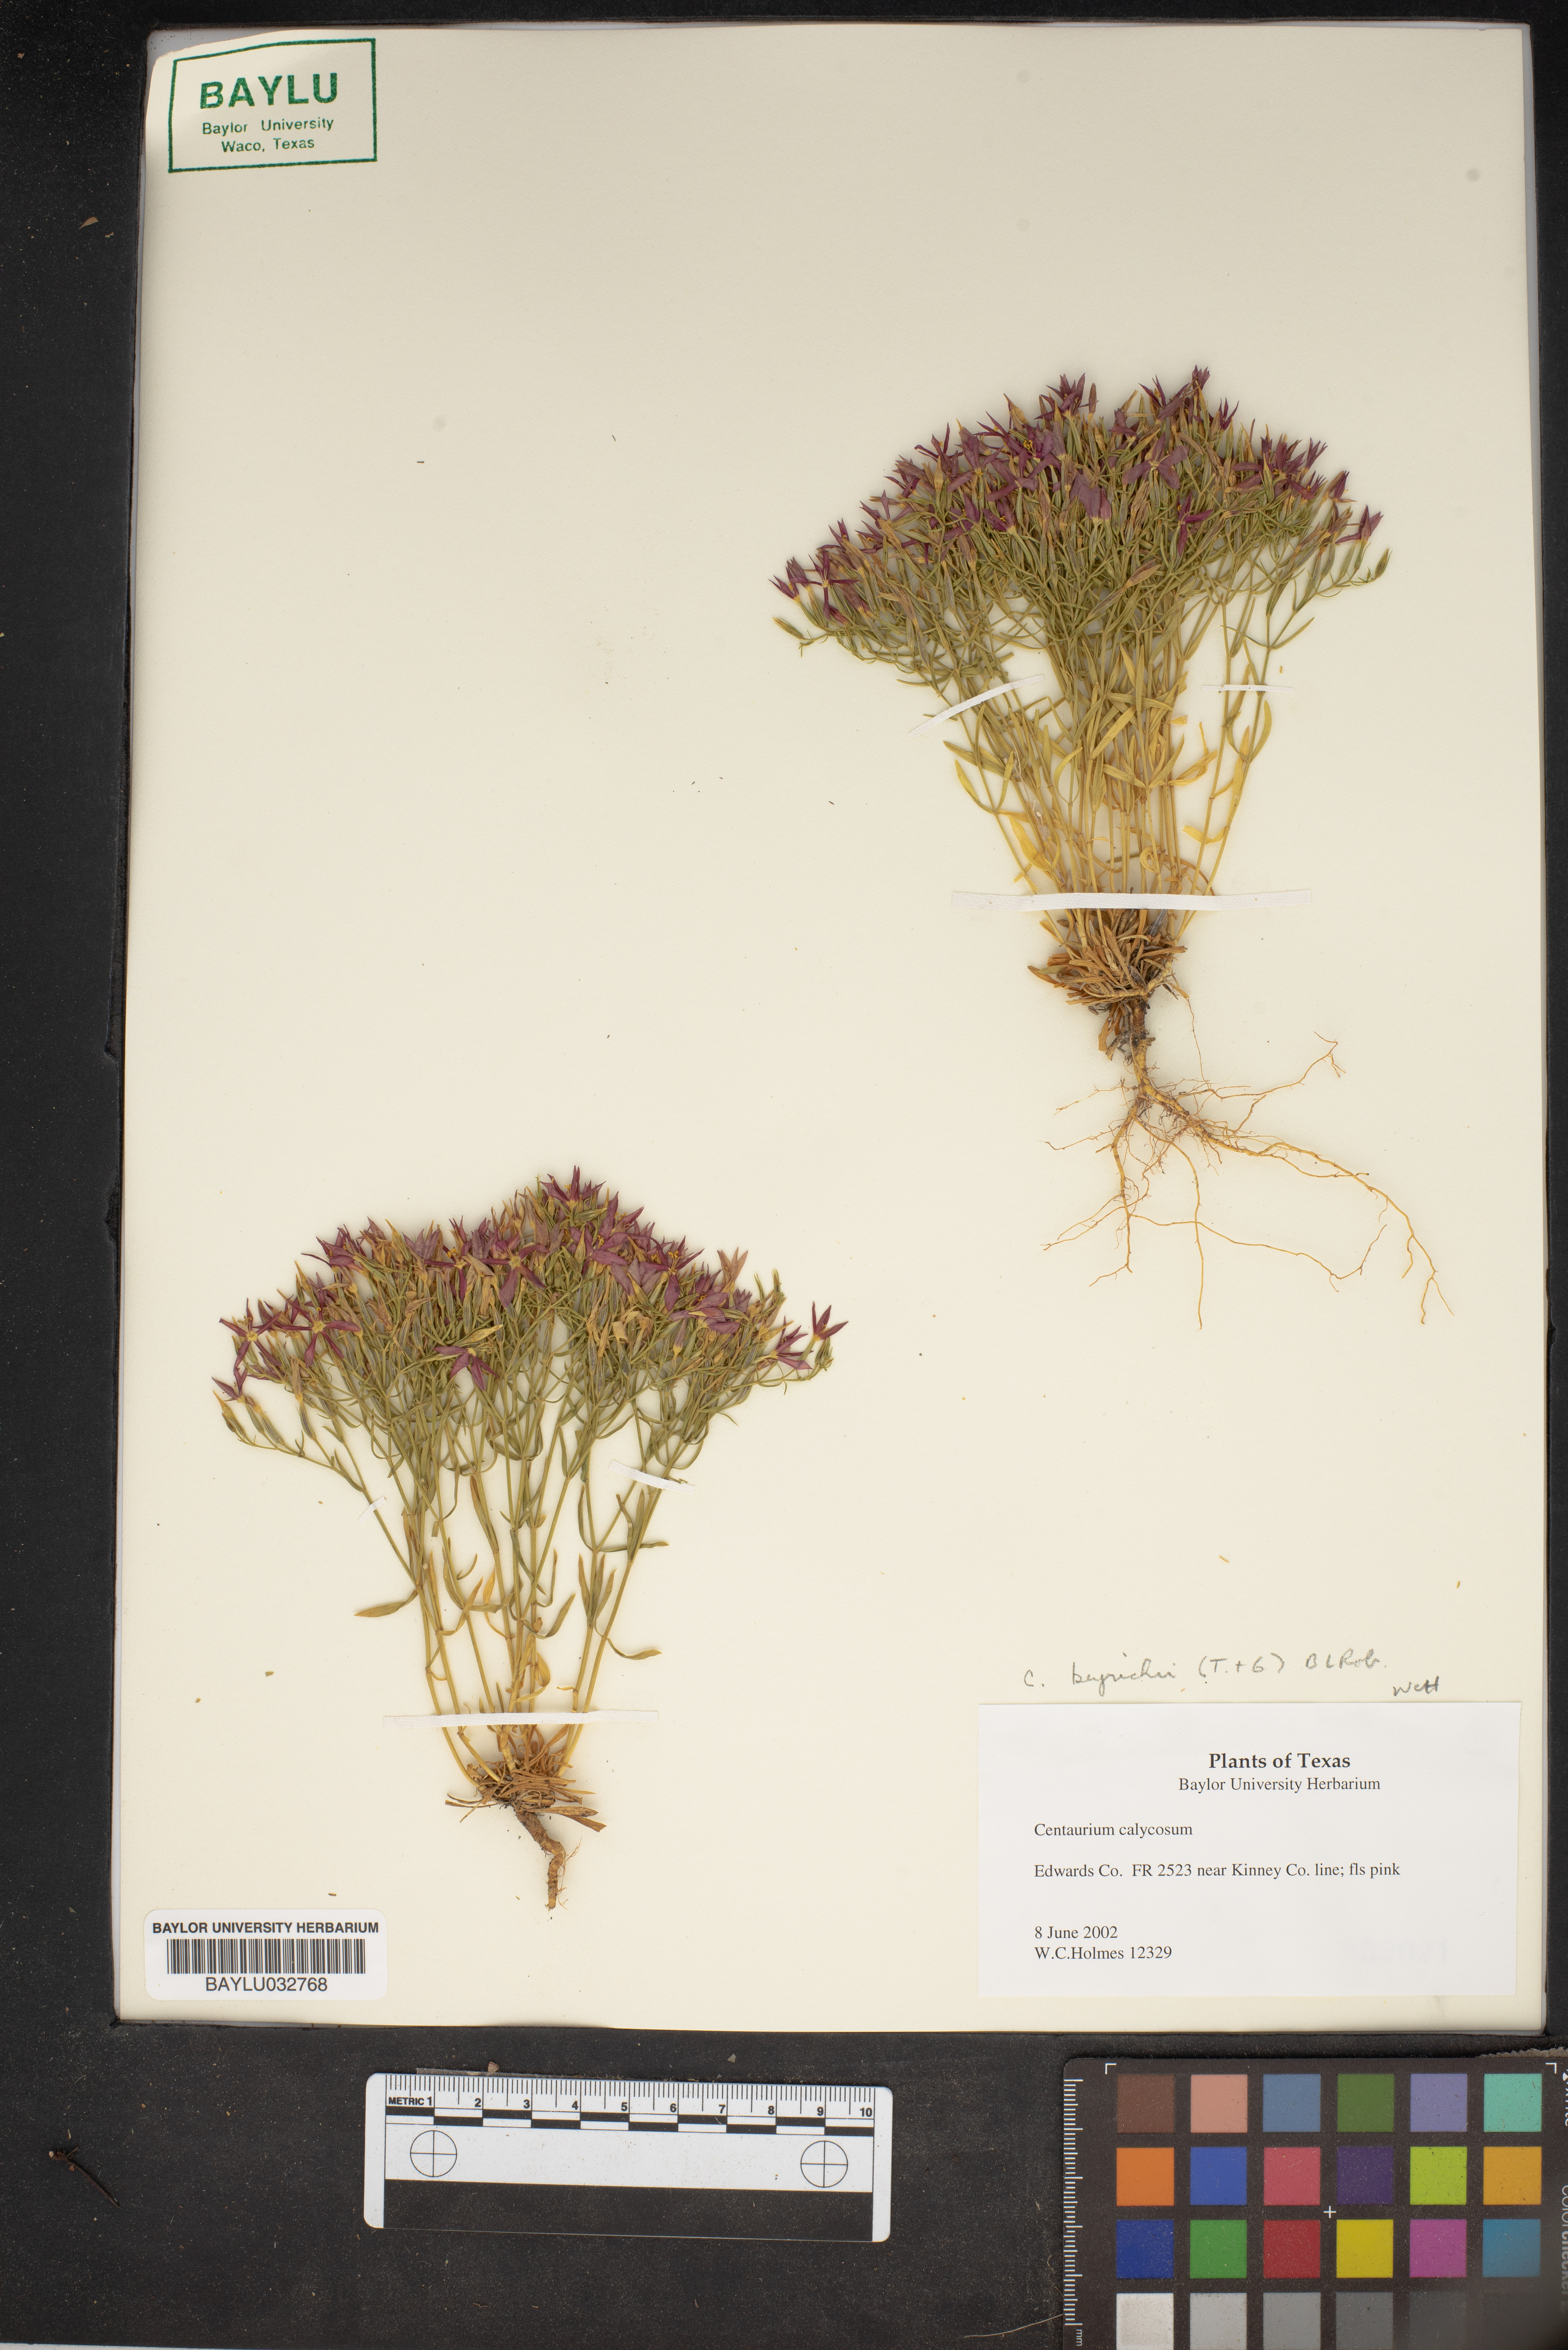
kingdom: Plantae
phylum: Tracheophyta
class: Magnoliopsida
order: Gentianales
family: Gentianaceae
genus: Zeltnera
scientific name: Zeltnera calycosa
